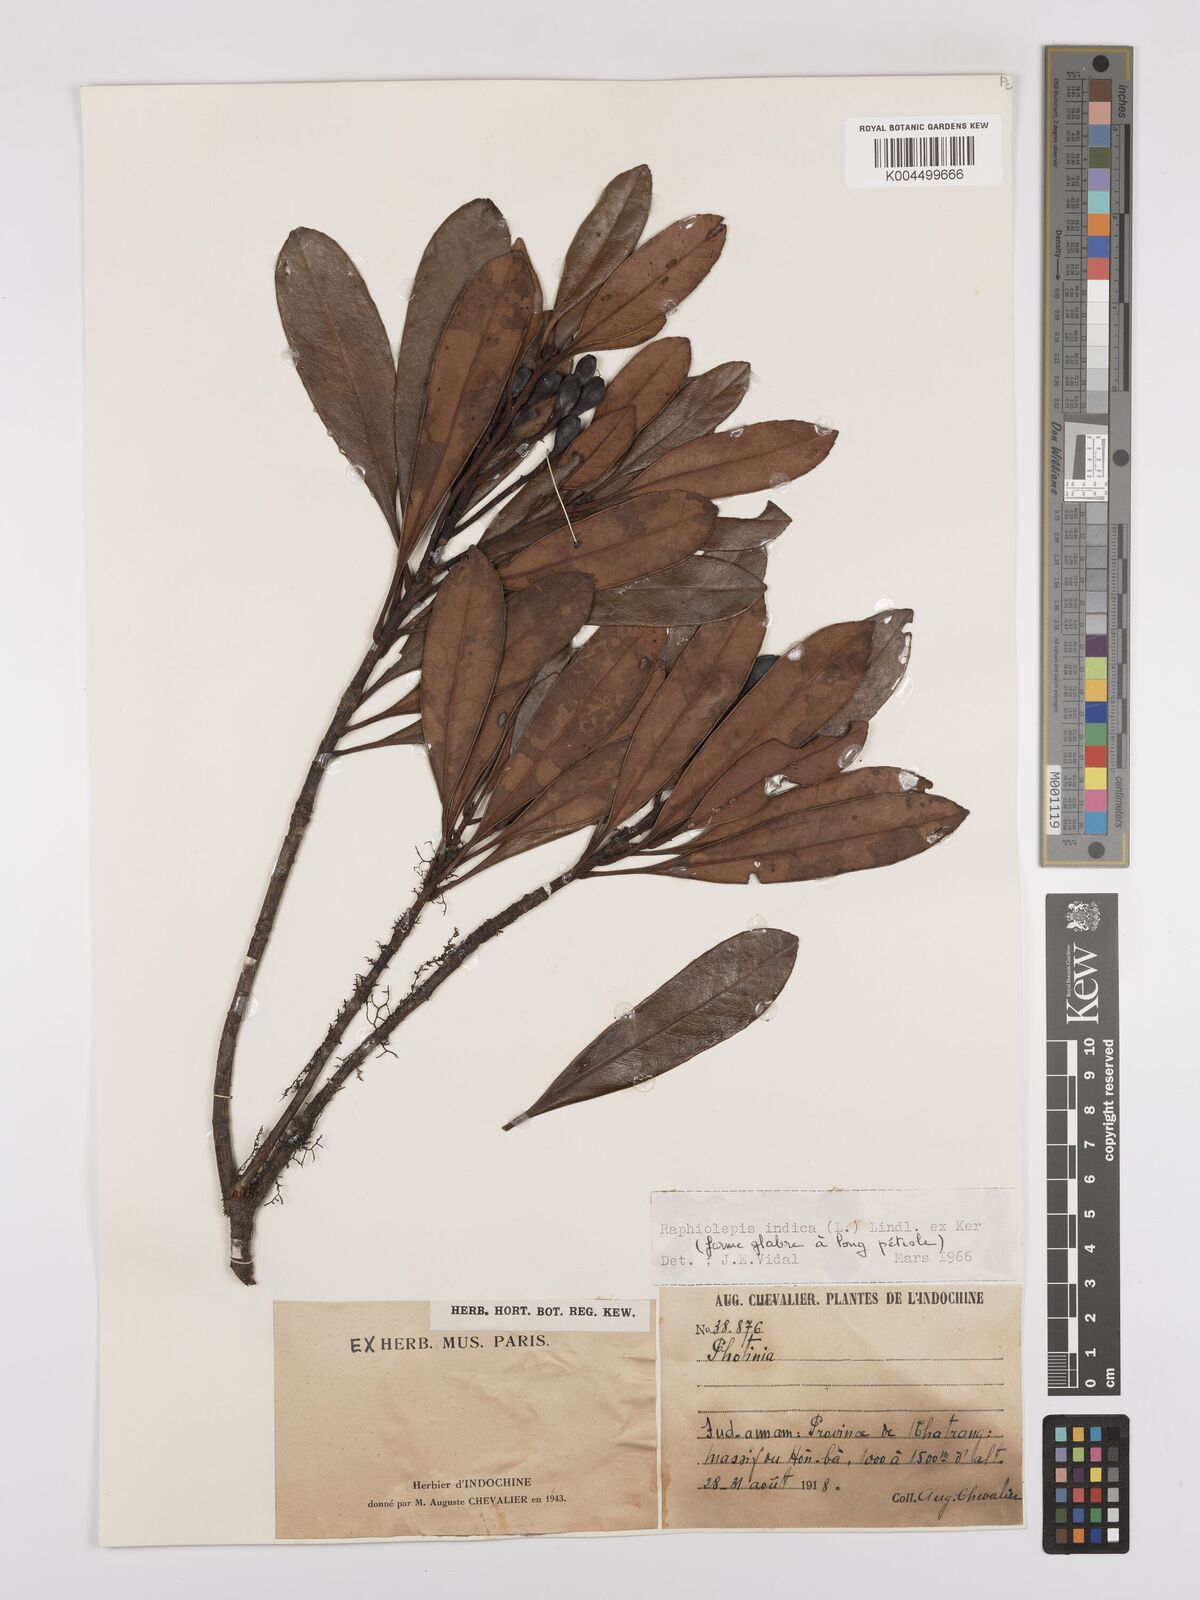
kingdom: Plantae
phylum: Tracheophyta
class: Magnoliopsida
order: Rosales
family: Rosaceae
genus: Rhaphiolepis
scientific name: Rhaphiolepis indica
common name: India-hawthorn
